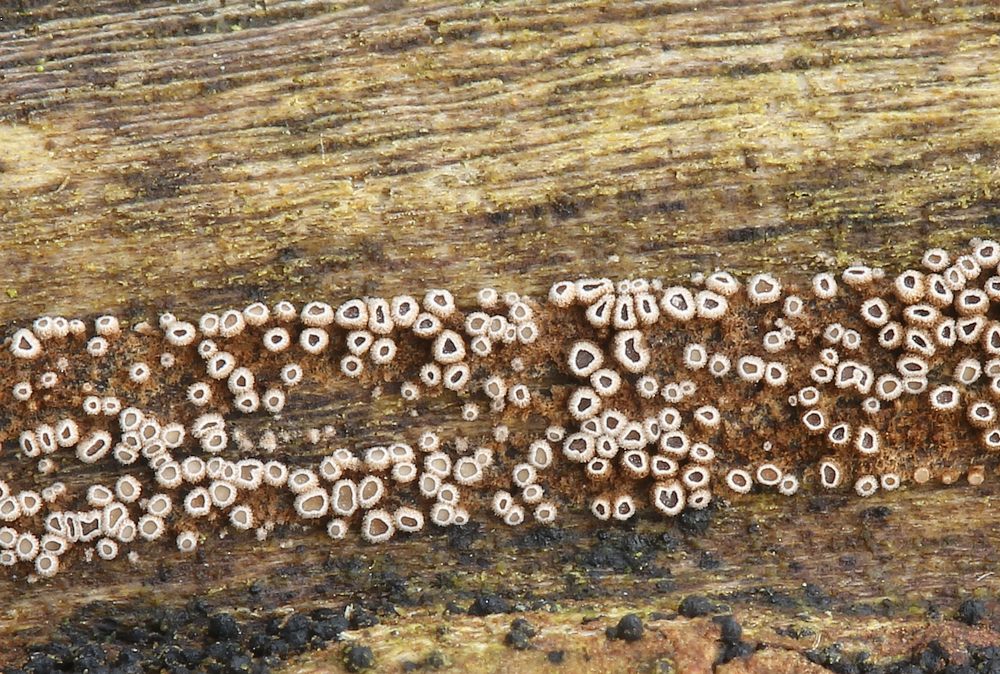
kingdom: Fungi
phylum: Basidiomycota
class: Agaricomycetes
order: Agaricales
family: Niaceae
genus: Merismodes
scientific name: Merismodes anomala
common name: almindelig læderskål
